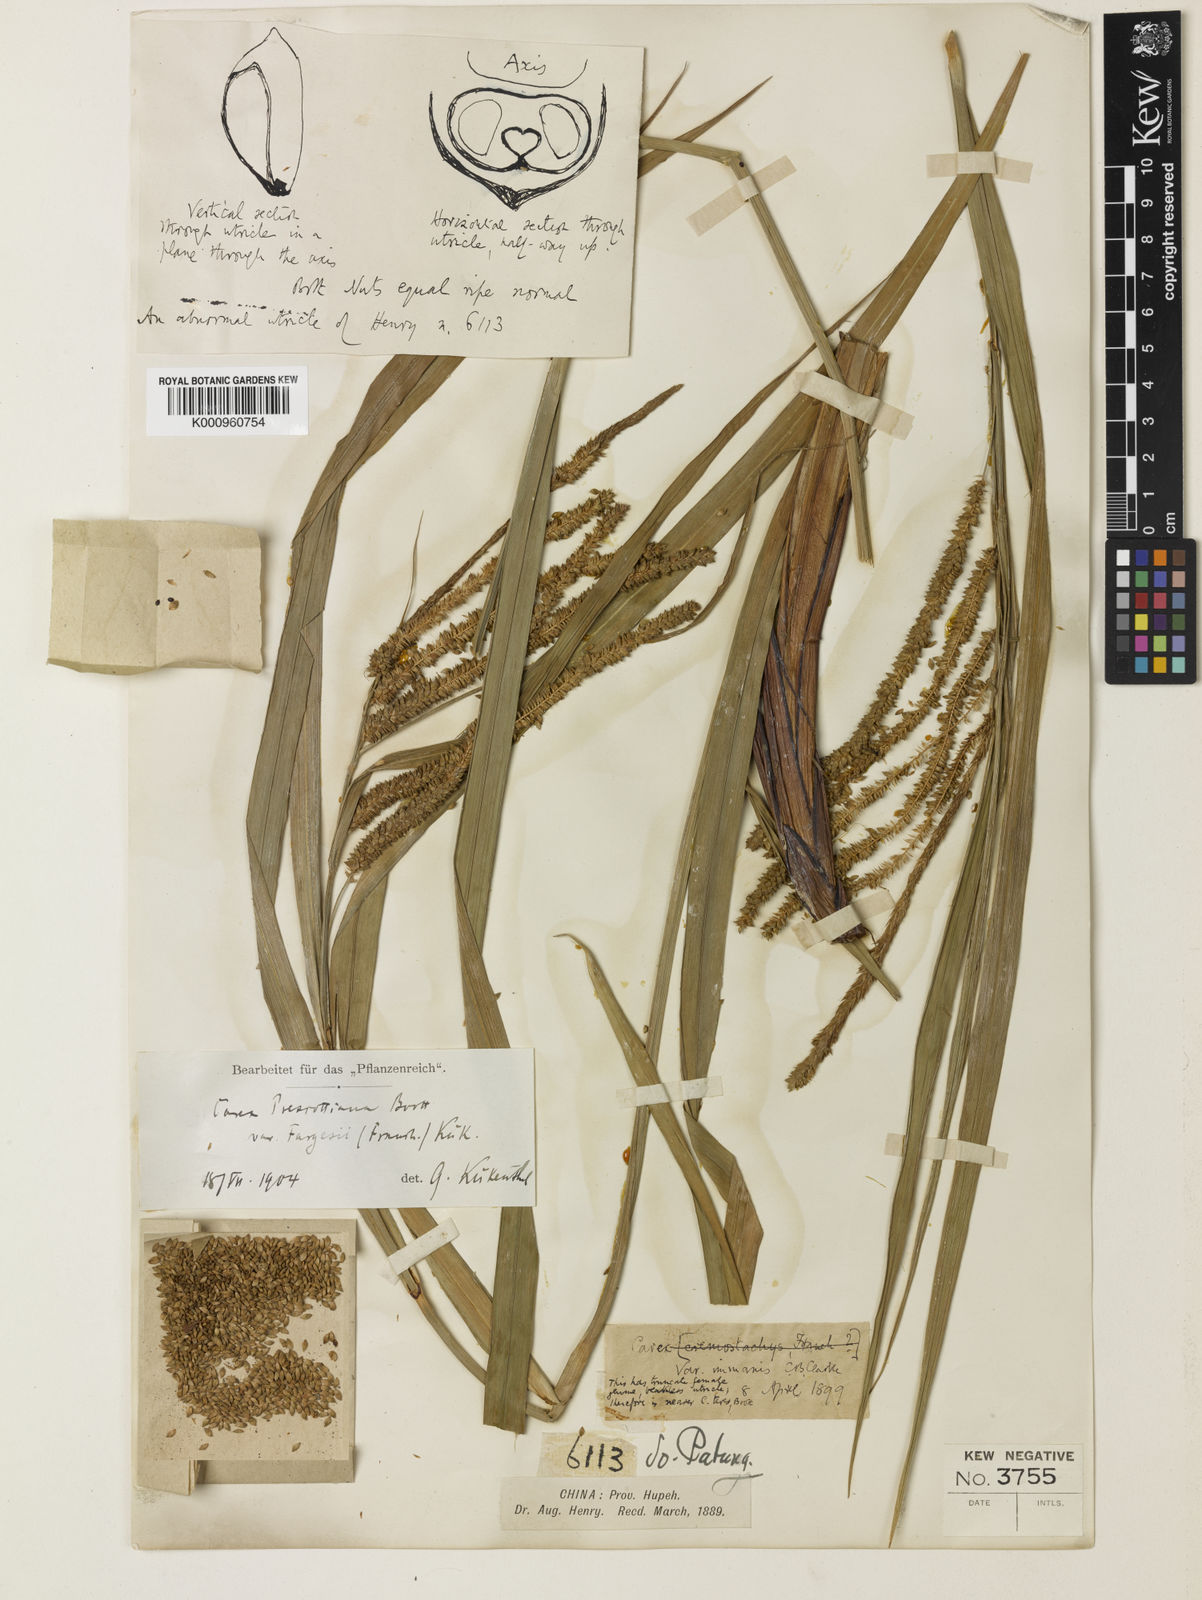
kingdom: Plantae
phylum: Tracheophyta
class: Liliopsida
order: Poales
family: Cyperaceae
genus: Carex
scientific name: Carex prescottiana
